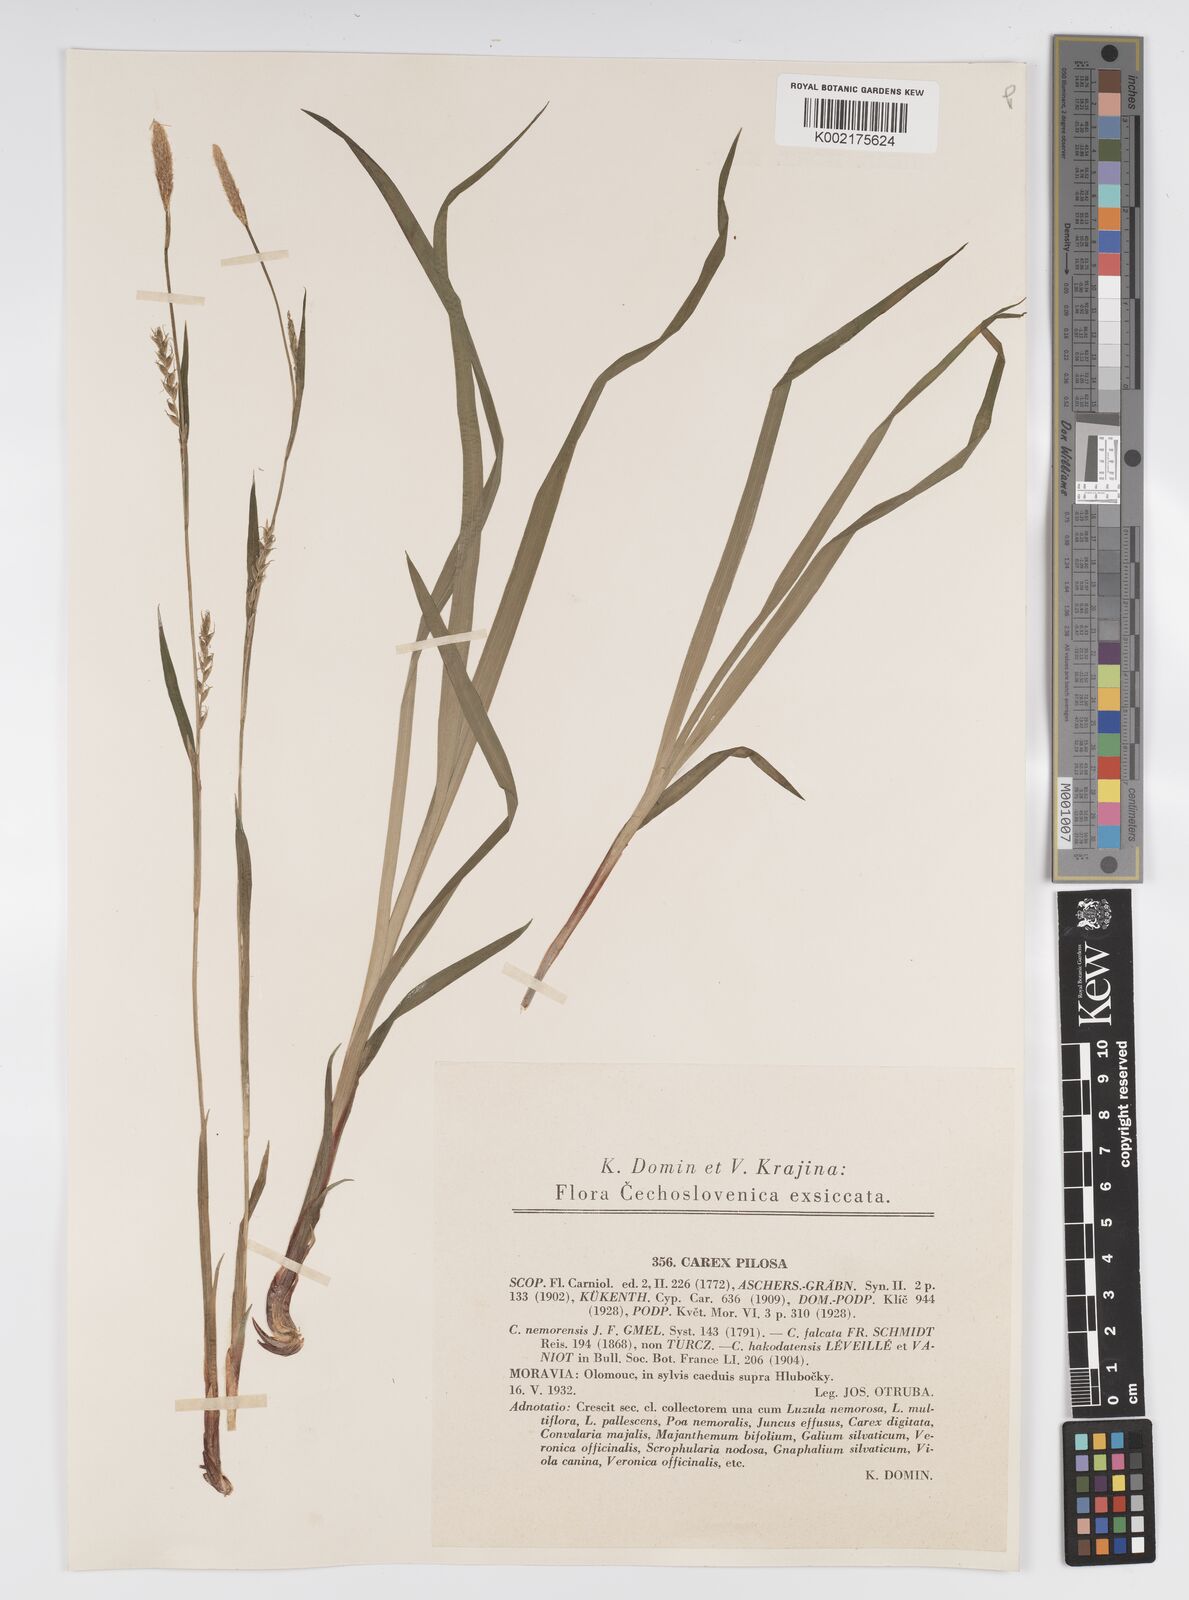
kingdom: Plantae
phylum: Tracheophyta
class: Liliopsida
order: Poales
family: Cyperaceae
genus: Carex
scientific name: Carex pilosa
